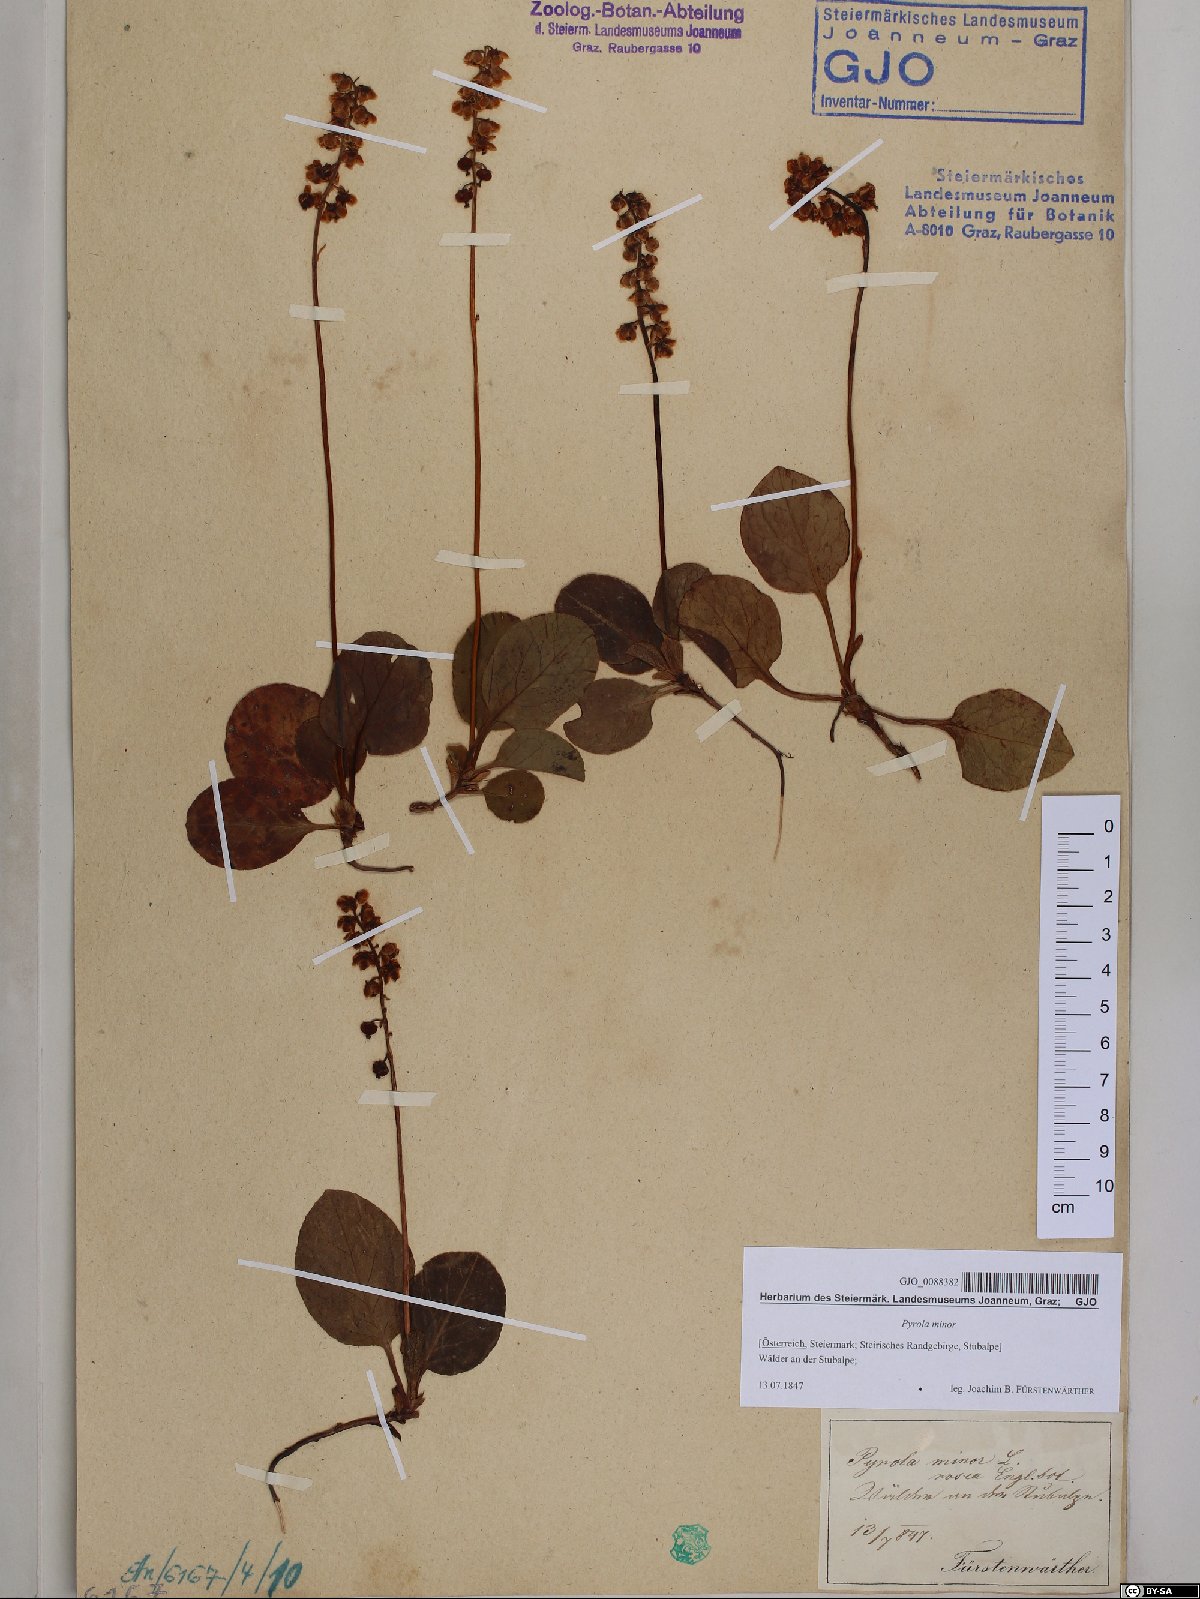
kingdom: Plantae
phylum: Tracheophyta
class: Magnoliopsida
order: Ericales
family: Ericaceae
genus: Pyrola
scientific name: Pyrola minor
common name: Common wintergreen
